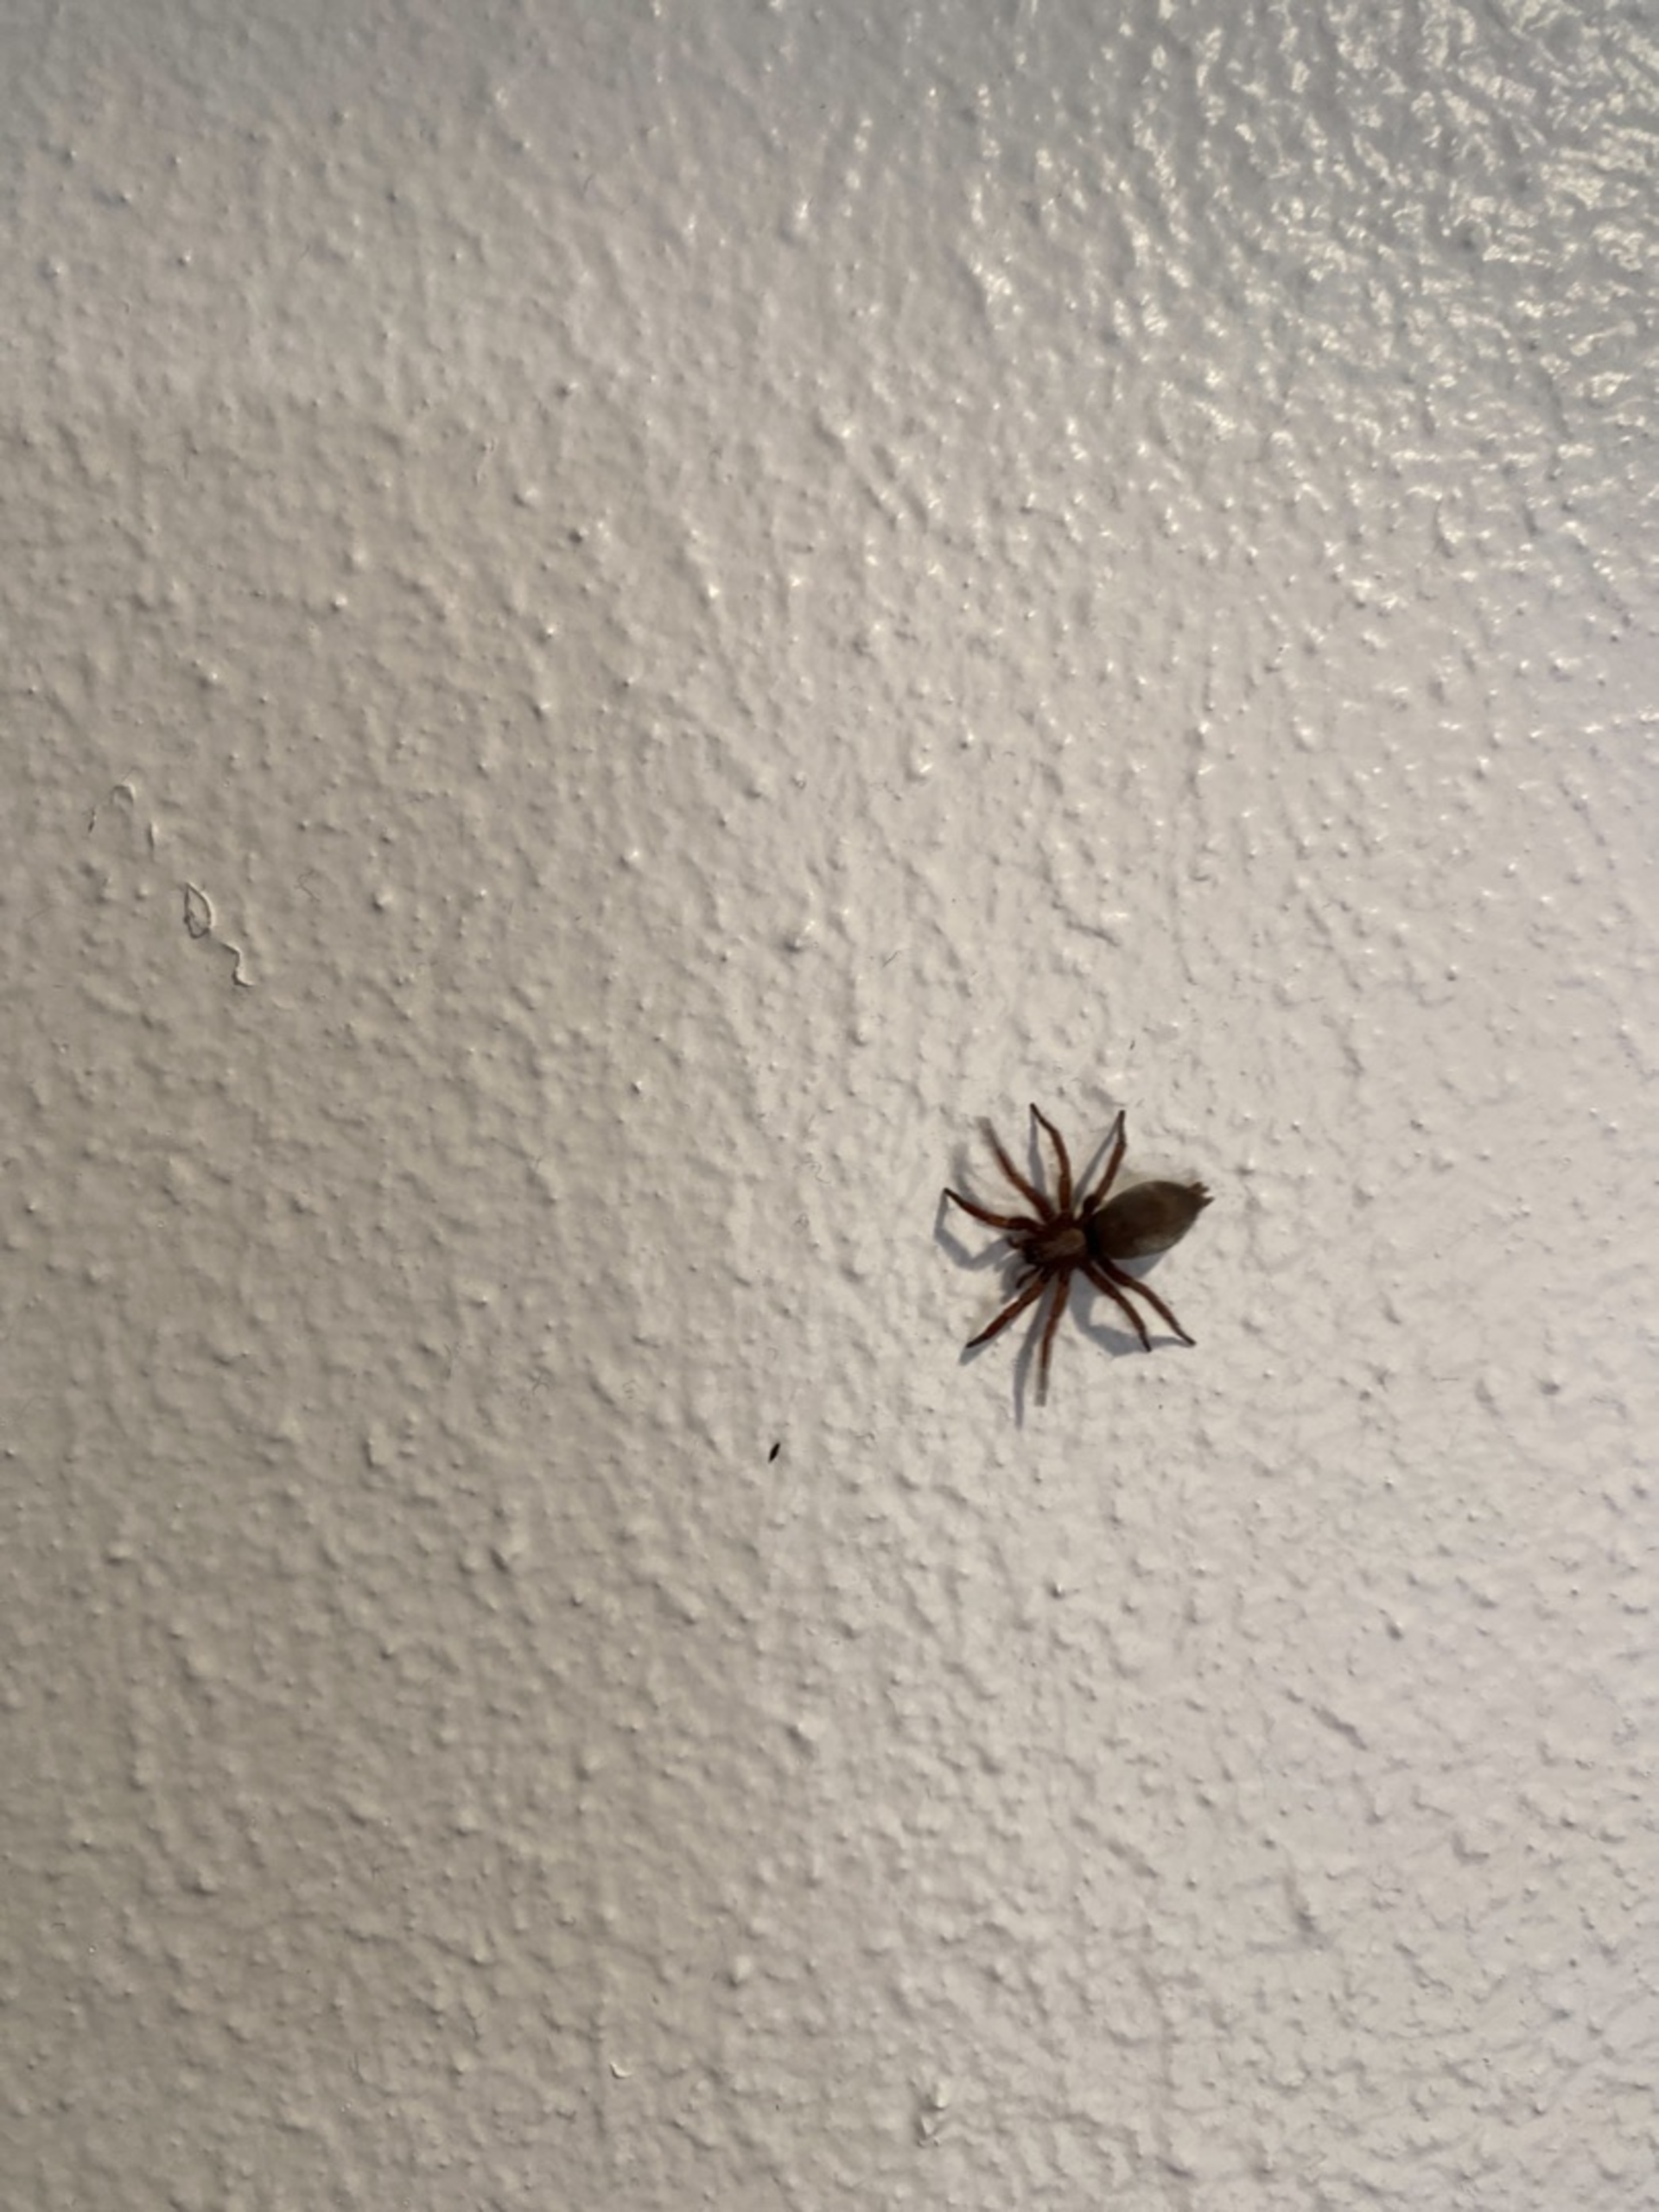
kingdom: Animalia
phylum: Arthropoda
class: Arachnida
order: Araneae
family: Gnaphosidae
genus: Scotophaeus
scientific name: Scotophaeus
